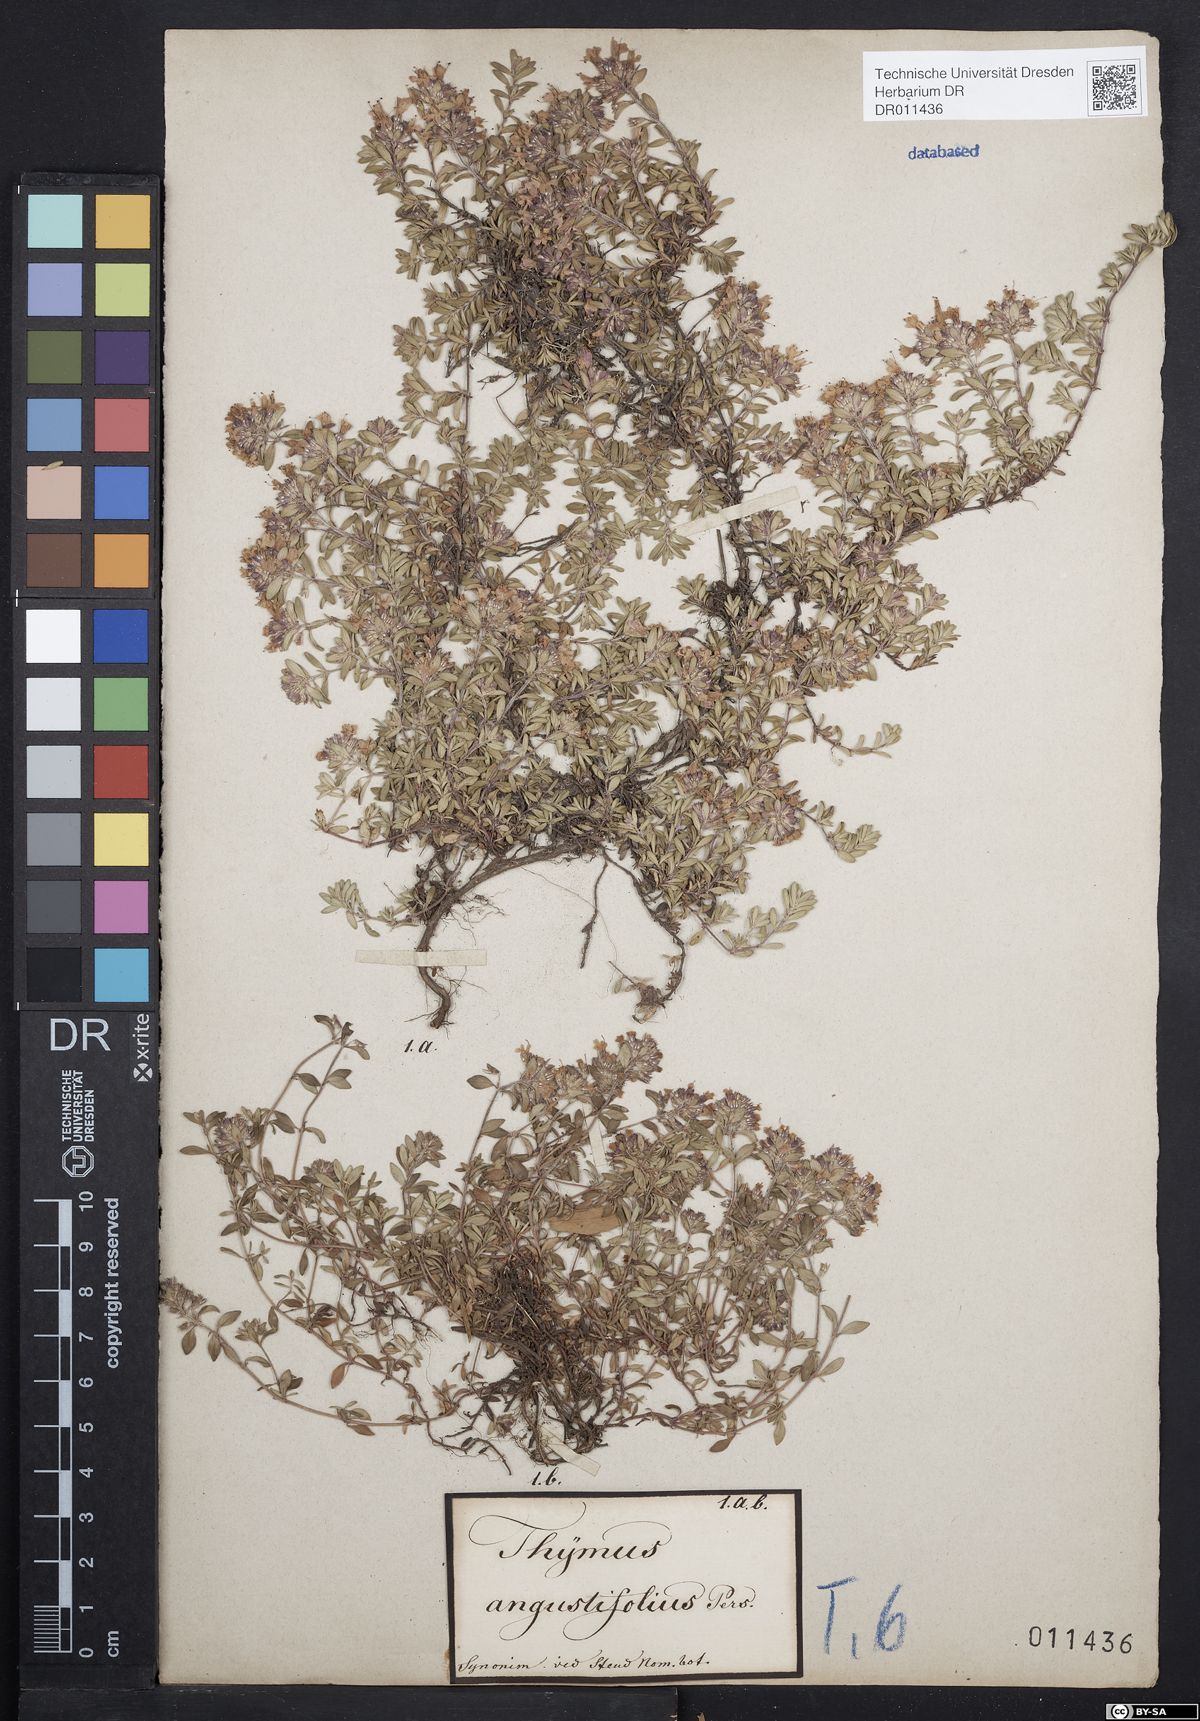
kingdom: Plantae
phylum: Tracheophyta
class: Magnoliopsida
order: Lamiales
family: Lamiaceae
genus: Thymus
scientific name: Thymus serpyllum
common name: Breckland thyme
